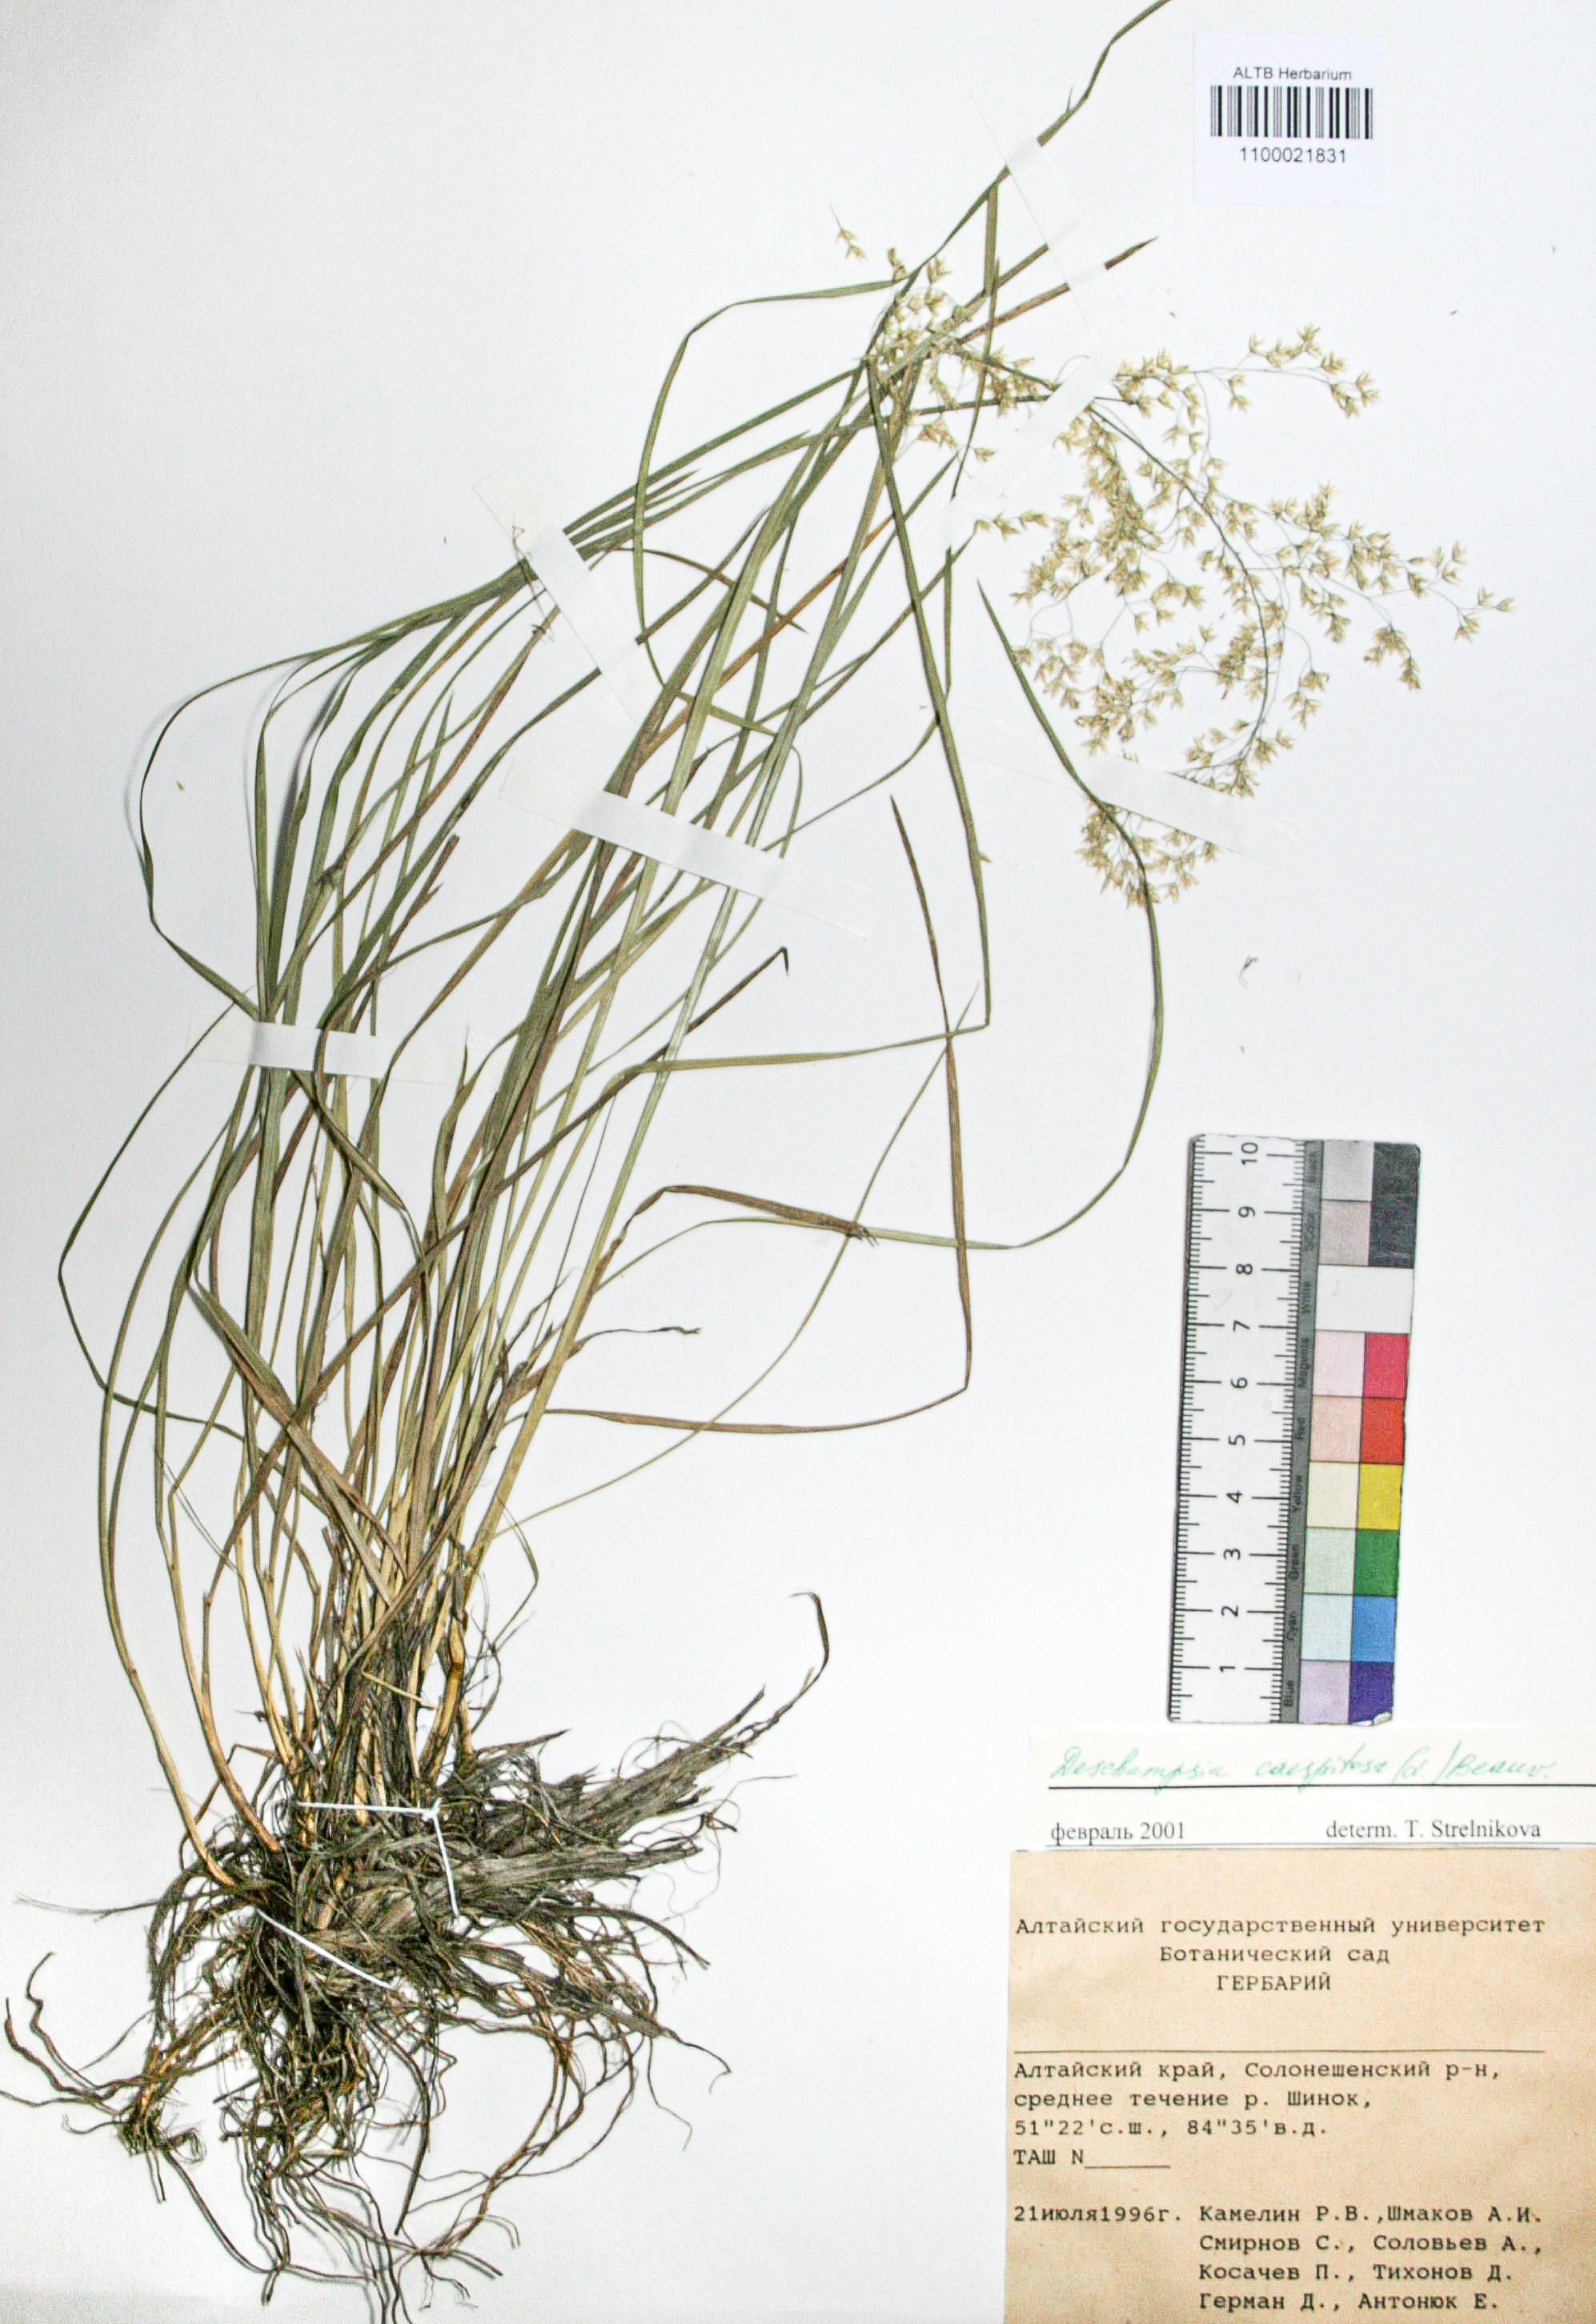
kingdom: Plantae
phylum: Tracheophyta
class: Liliopsida
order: Poales
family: Poaceae
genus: Deschampsia
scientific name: Deschampsia cespitosa
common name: Tufted hair-grass
